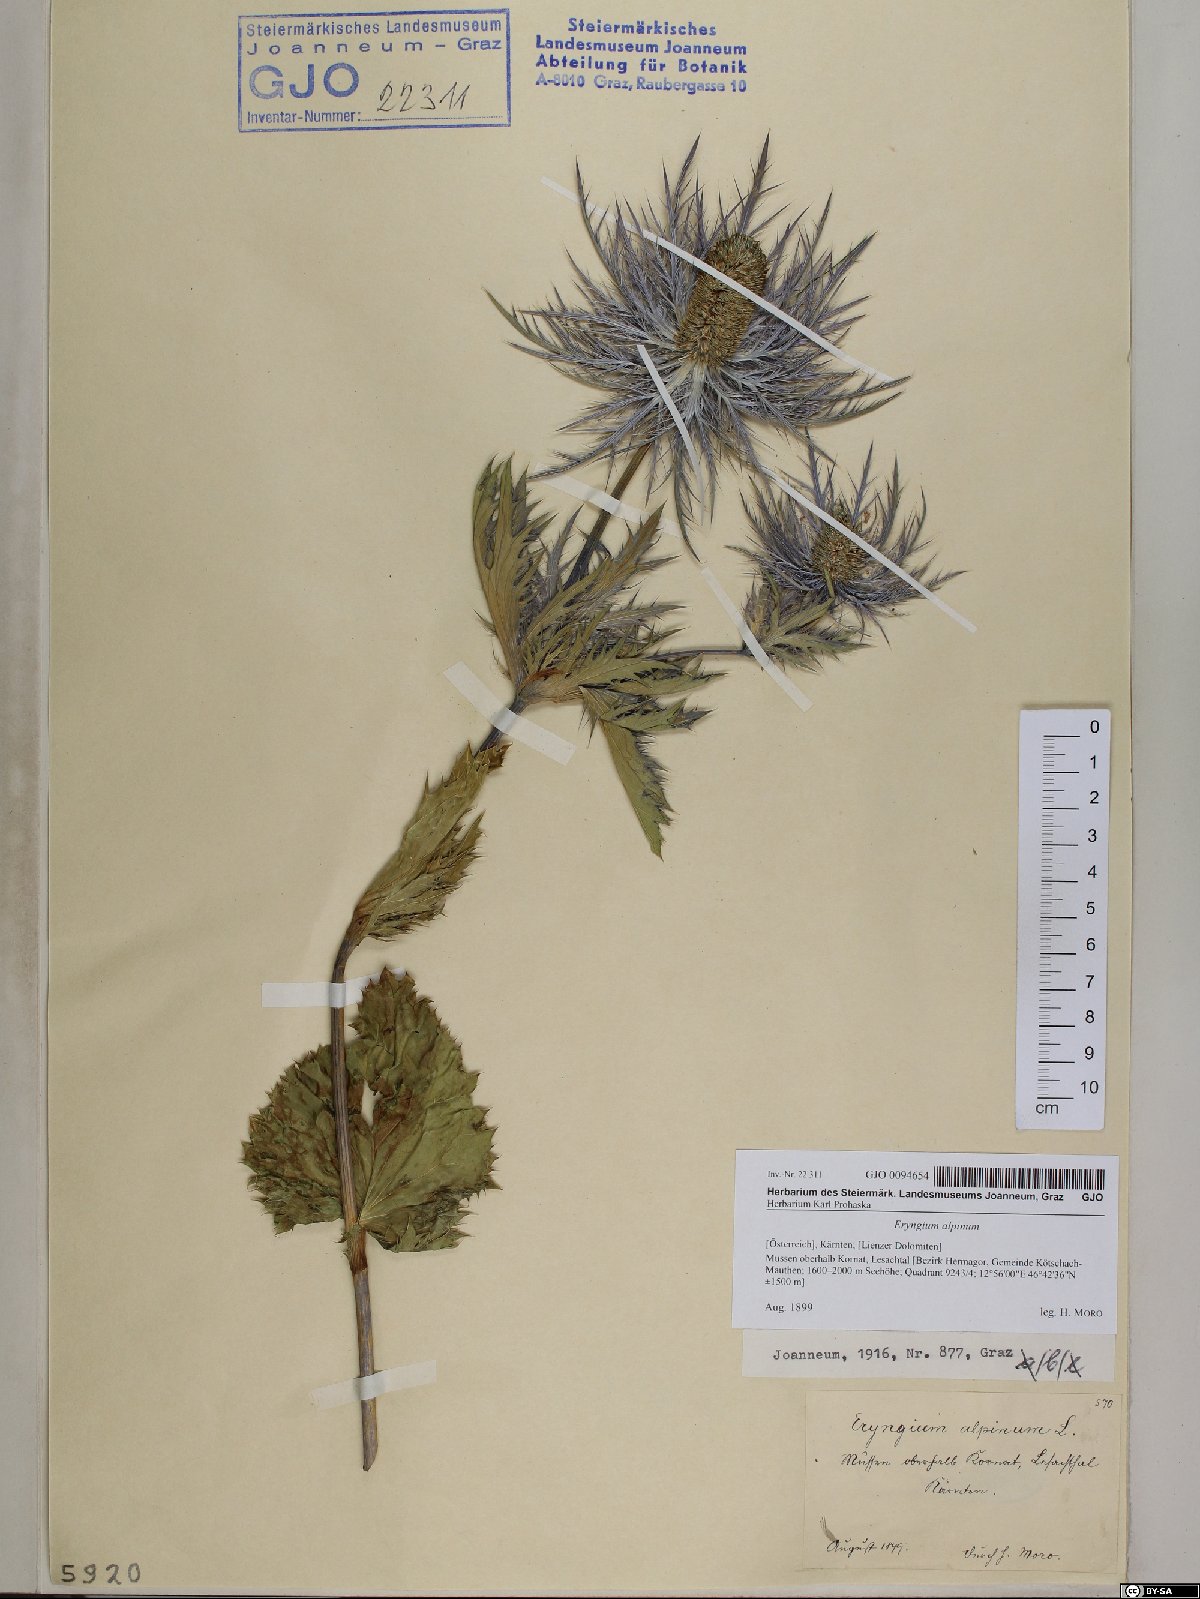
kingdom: Plantae
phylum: Tracheophyta
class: Magnoliopsida
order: Apiales
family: Apiaceae
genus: Eryngium
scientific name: Eryngium alpinum
